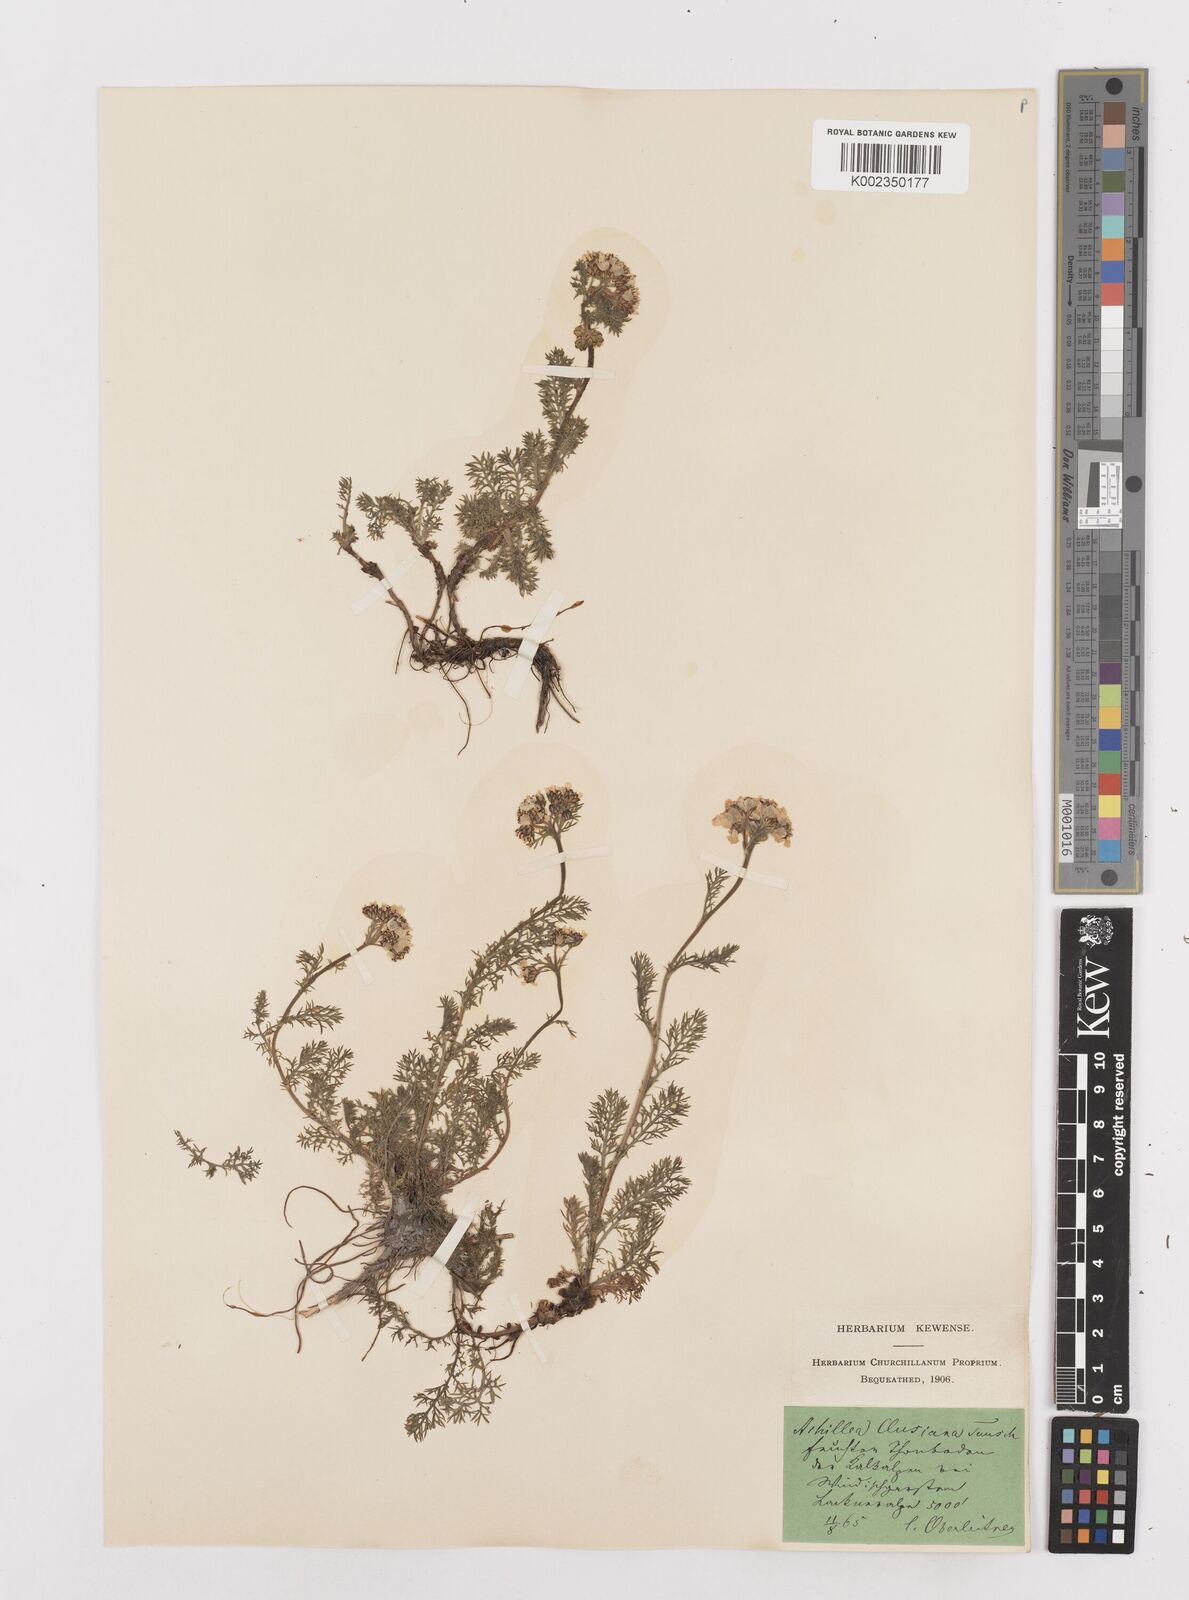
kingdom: Plantae
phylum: Tracheophyta
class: Magnoliopsida
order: Asterales
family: Asteraceae
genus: Achillea
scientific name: Achillea clusiana
